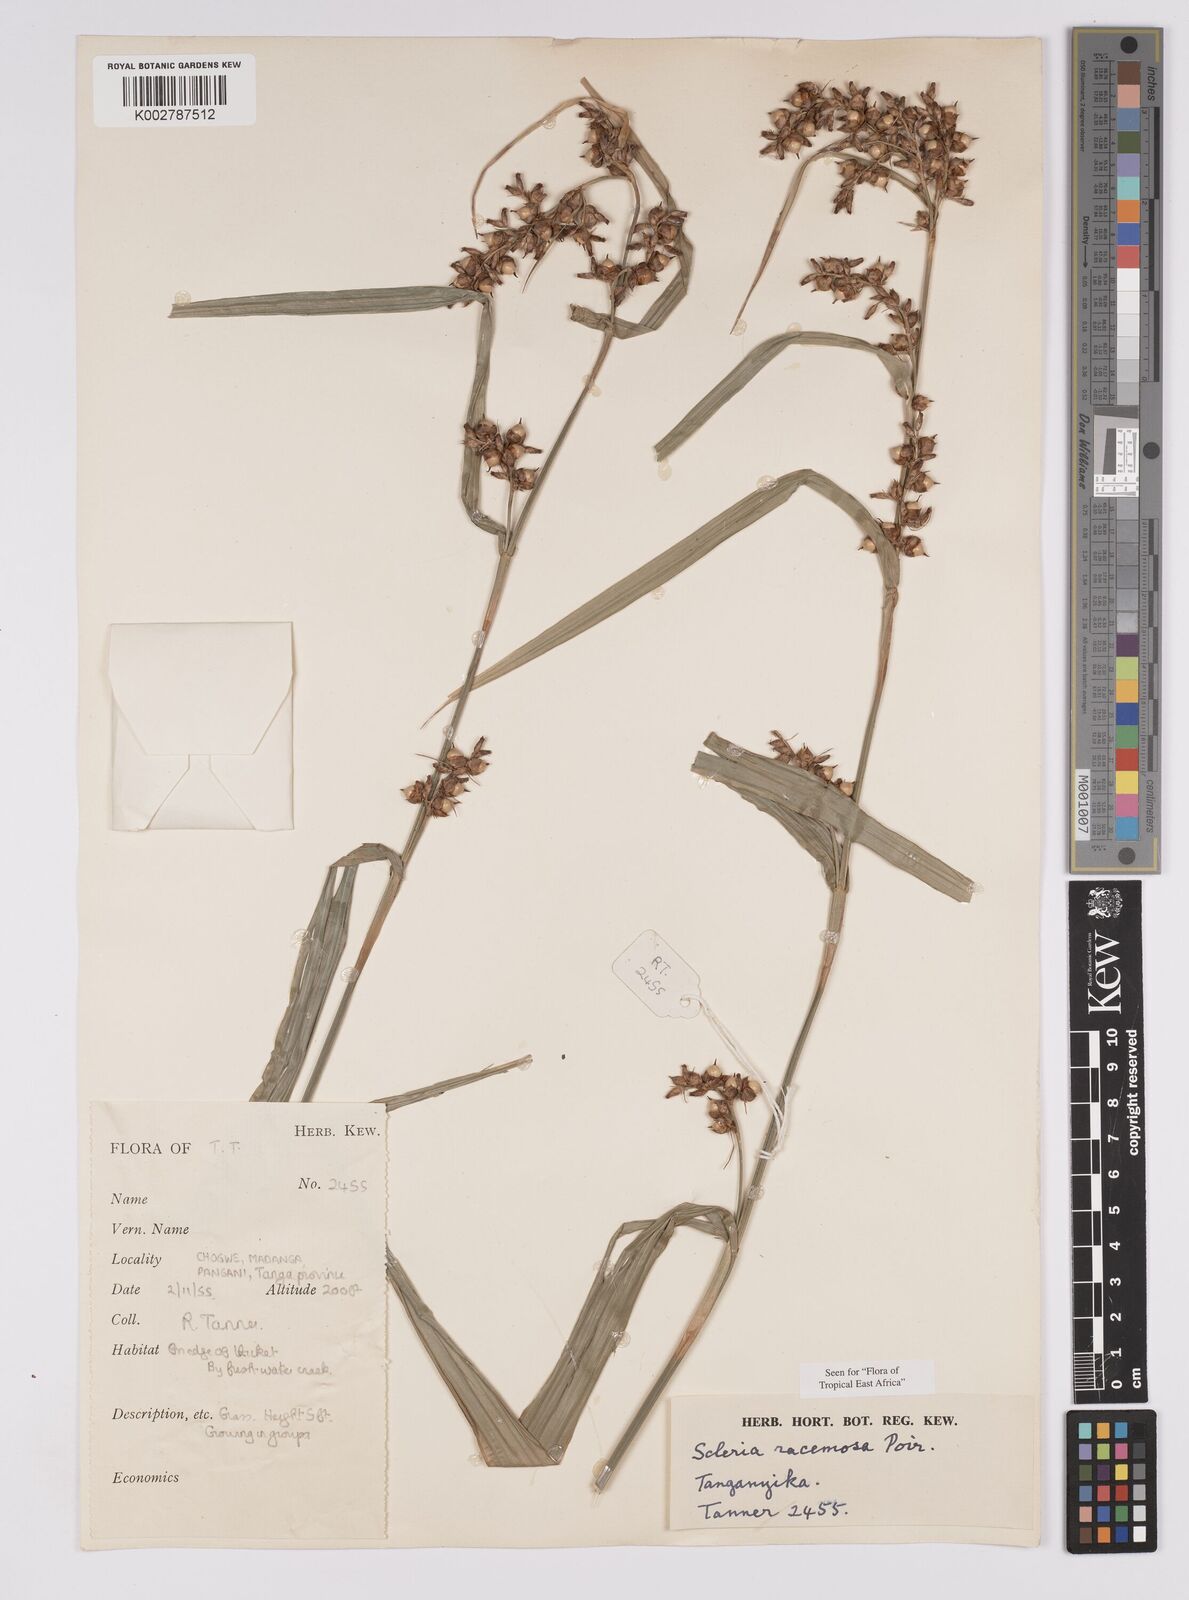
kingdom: Plantae
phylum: Tracheophyta
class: Liliopsida
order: Poales
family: Cyperaceae
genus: Scleria
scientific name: Scleria racemosa
